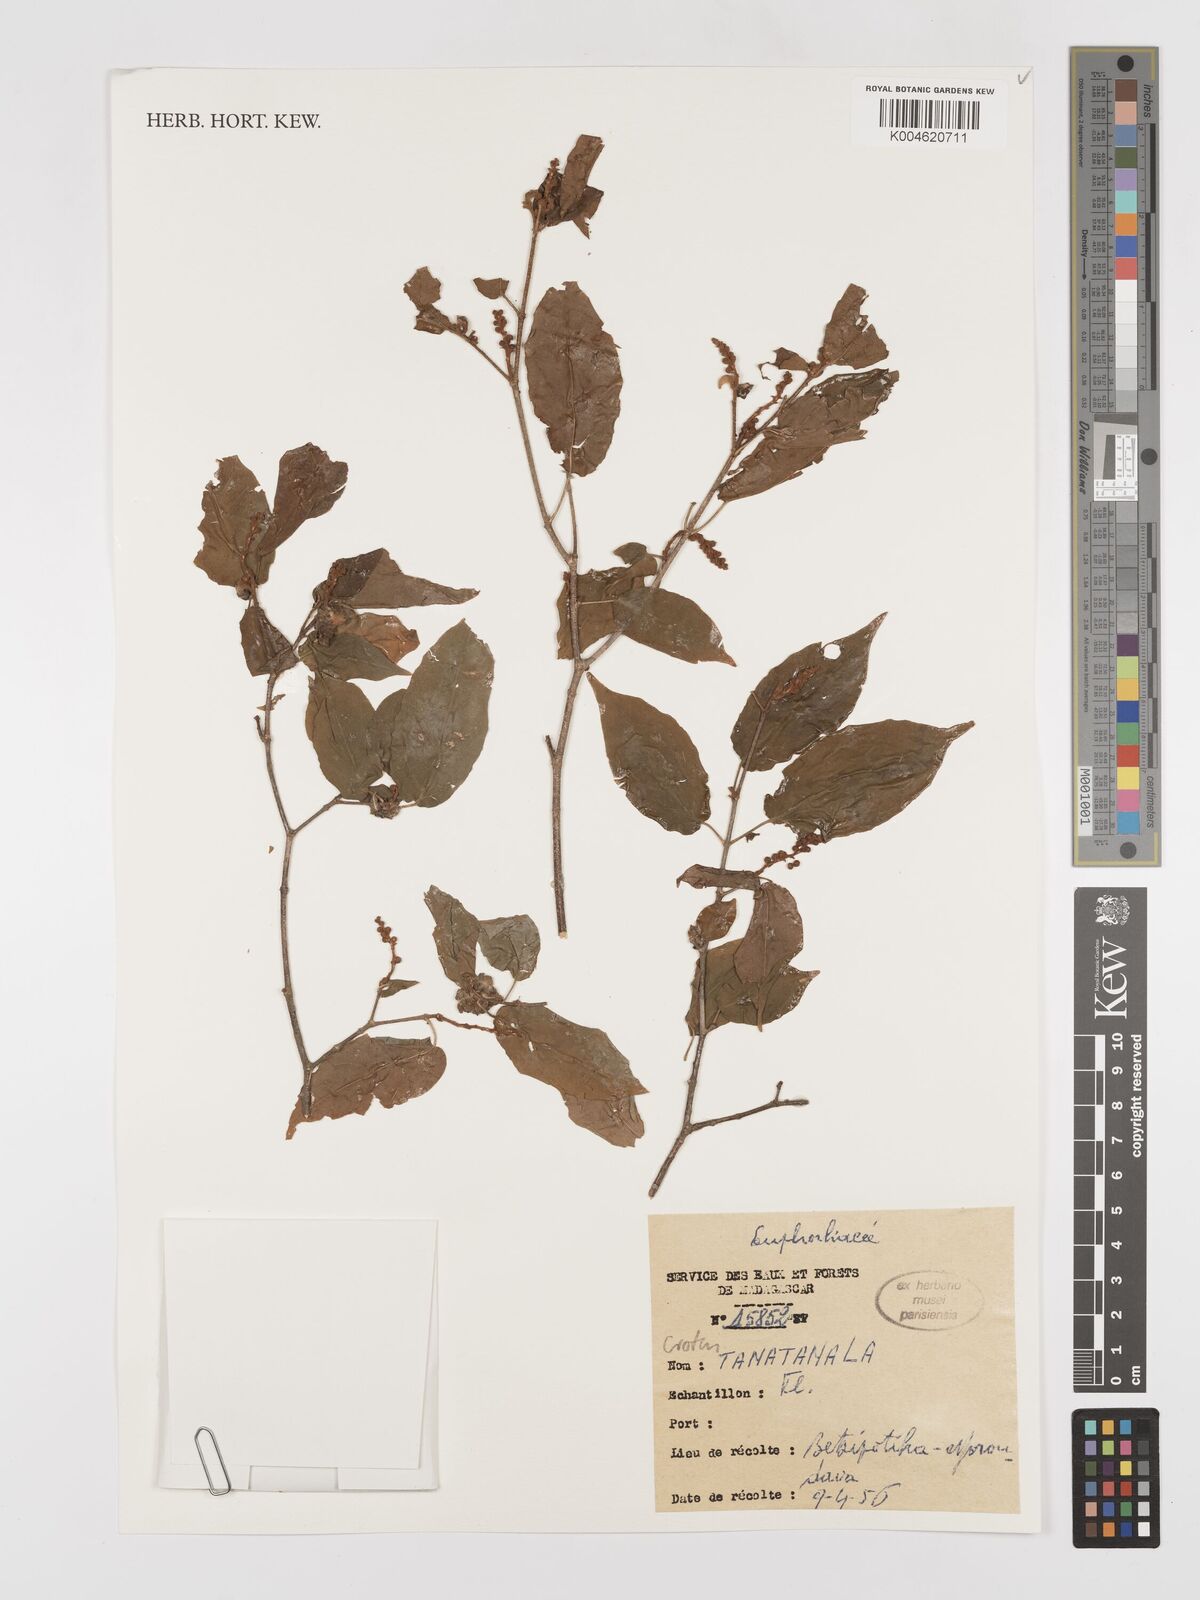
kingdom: Plantae
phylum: Tracheophyta
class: Magnoliopsida
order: Malpighiales
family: Euphorbiaceae
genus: Croton
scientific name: Croton
